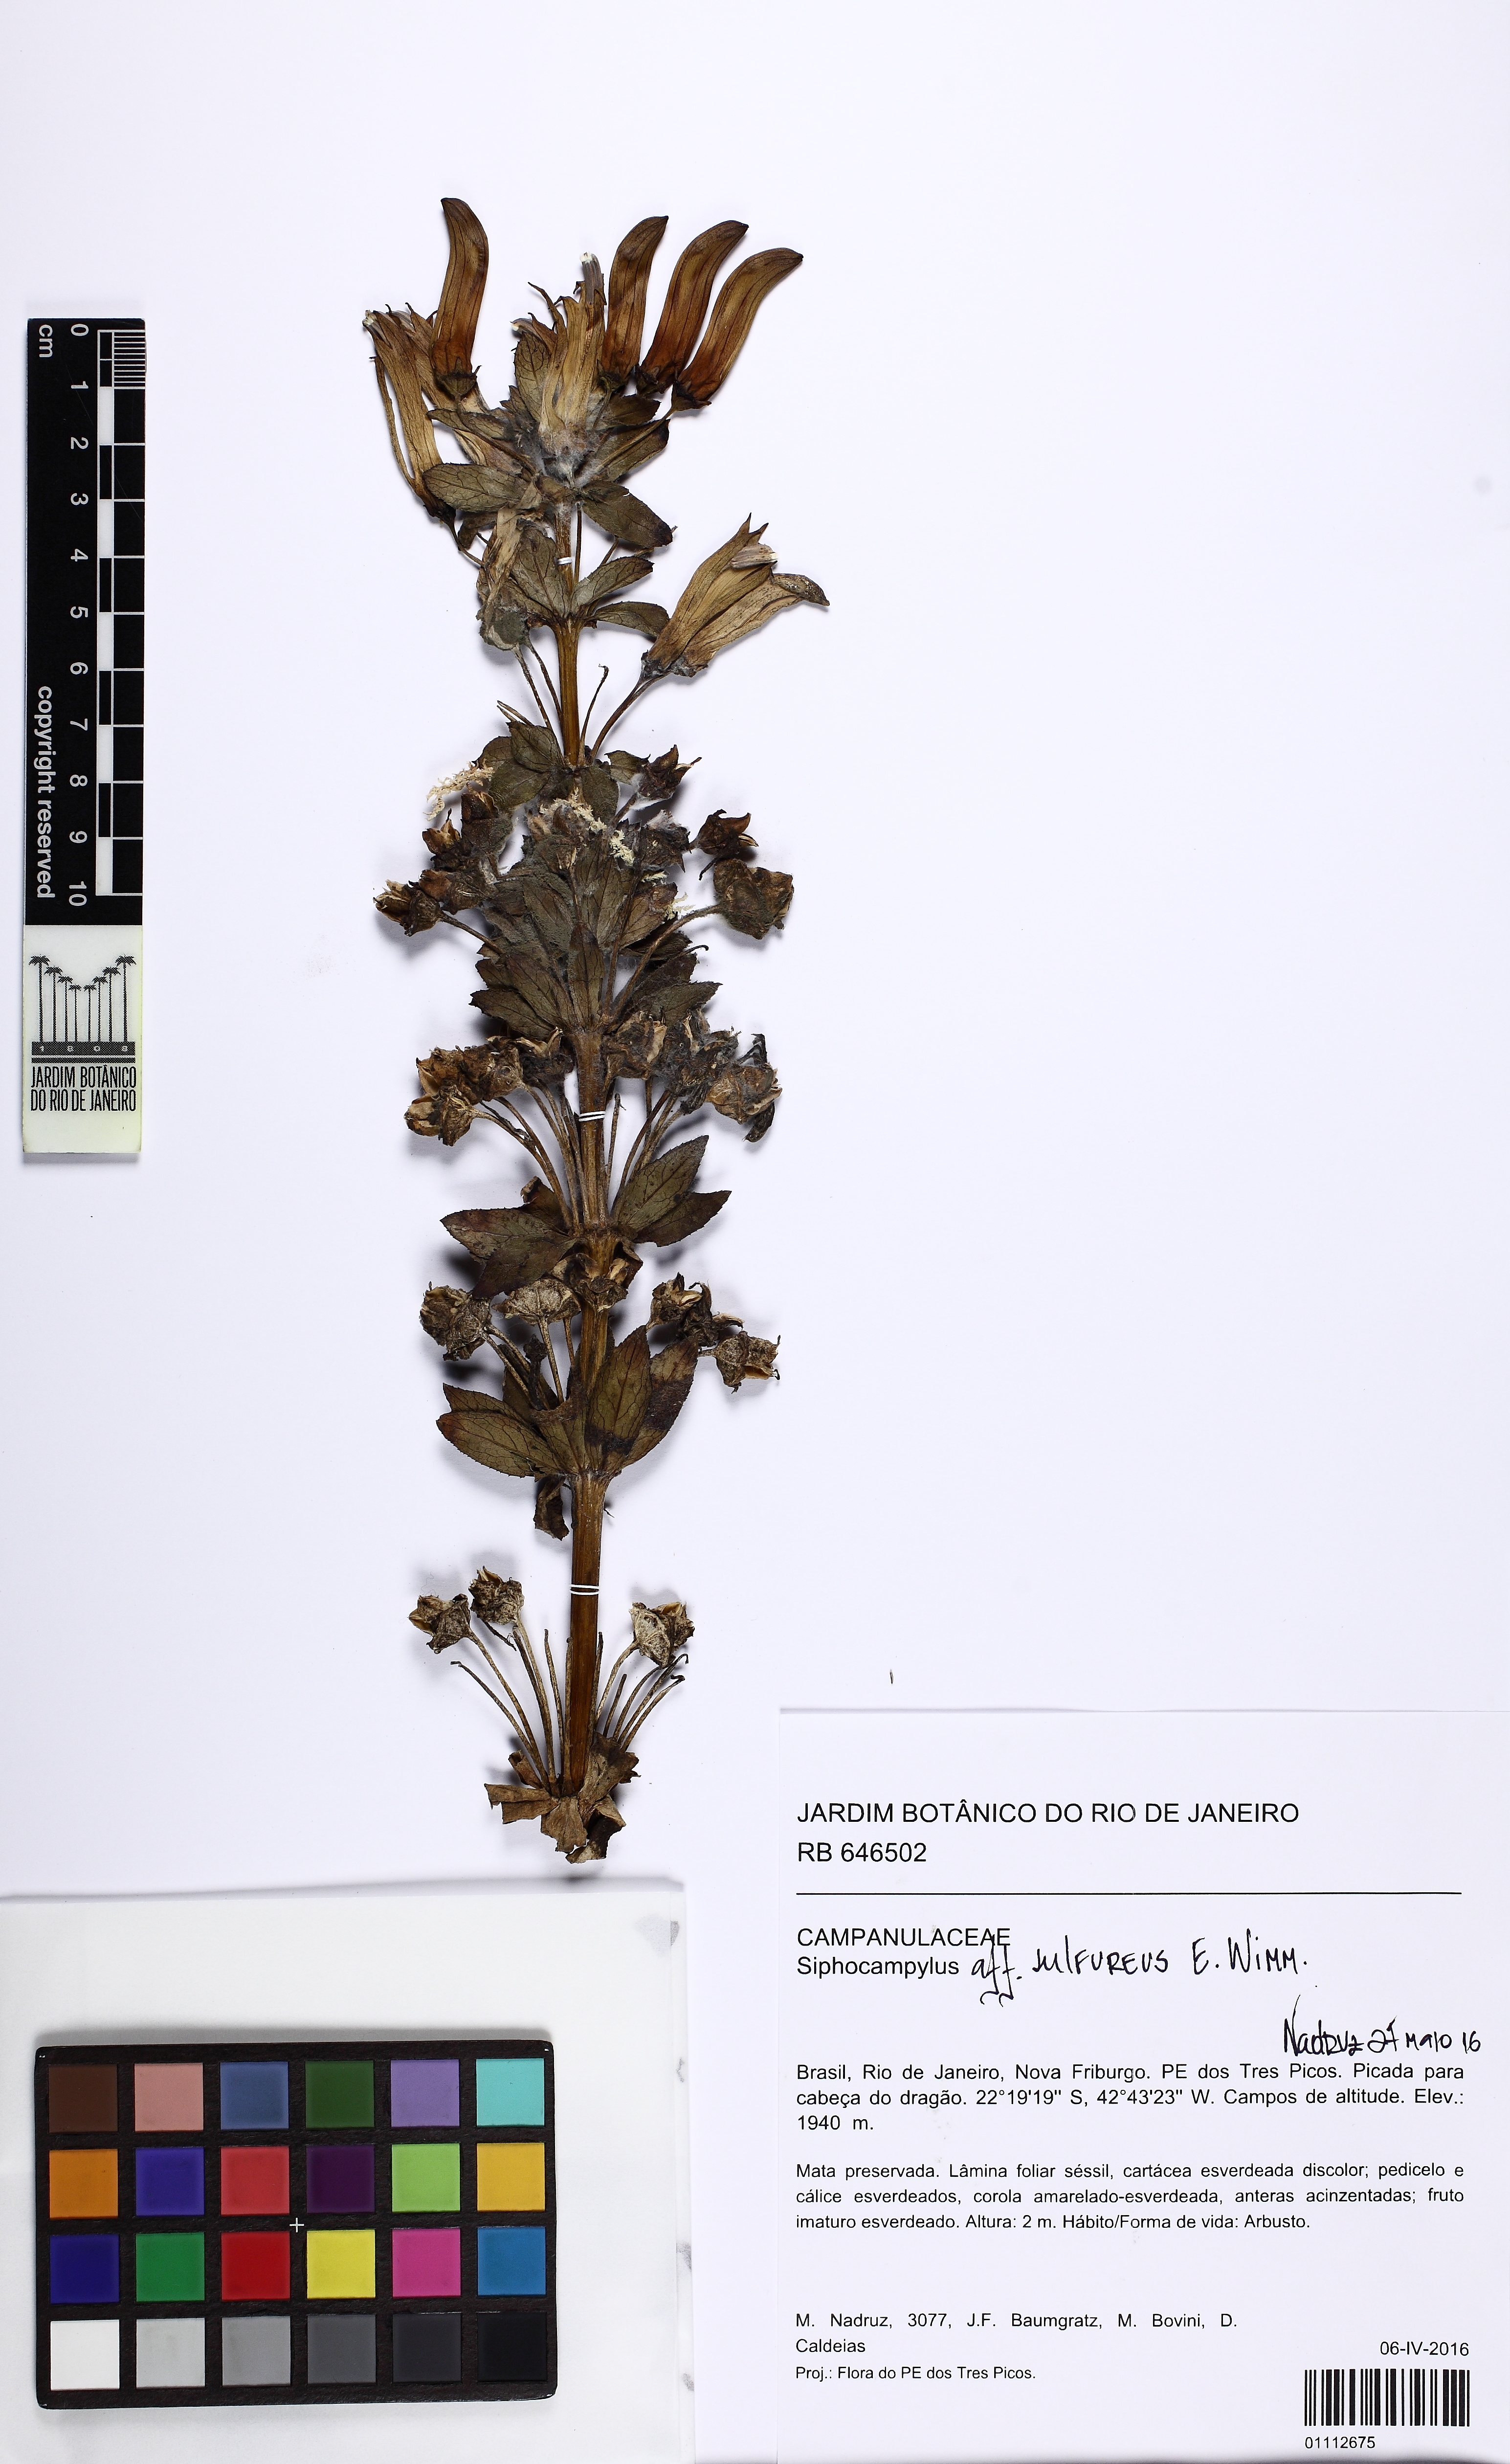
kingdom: Plantae
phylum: Tracheophyta
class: Magnoliopsida
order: Asterales
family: Campanulaceae
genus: Siphocampylus
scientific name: Siphocampylus sulfureus
